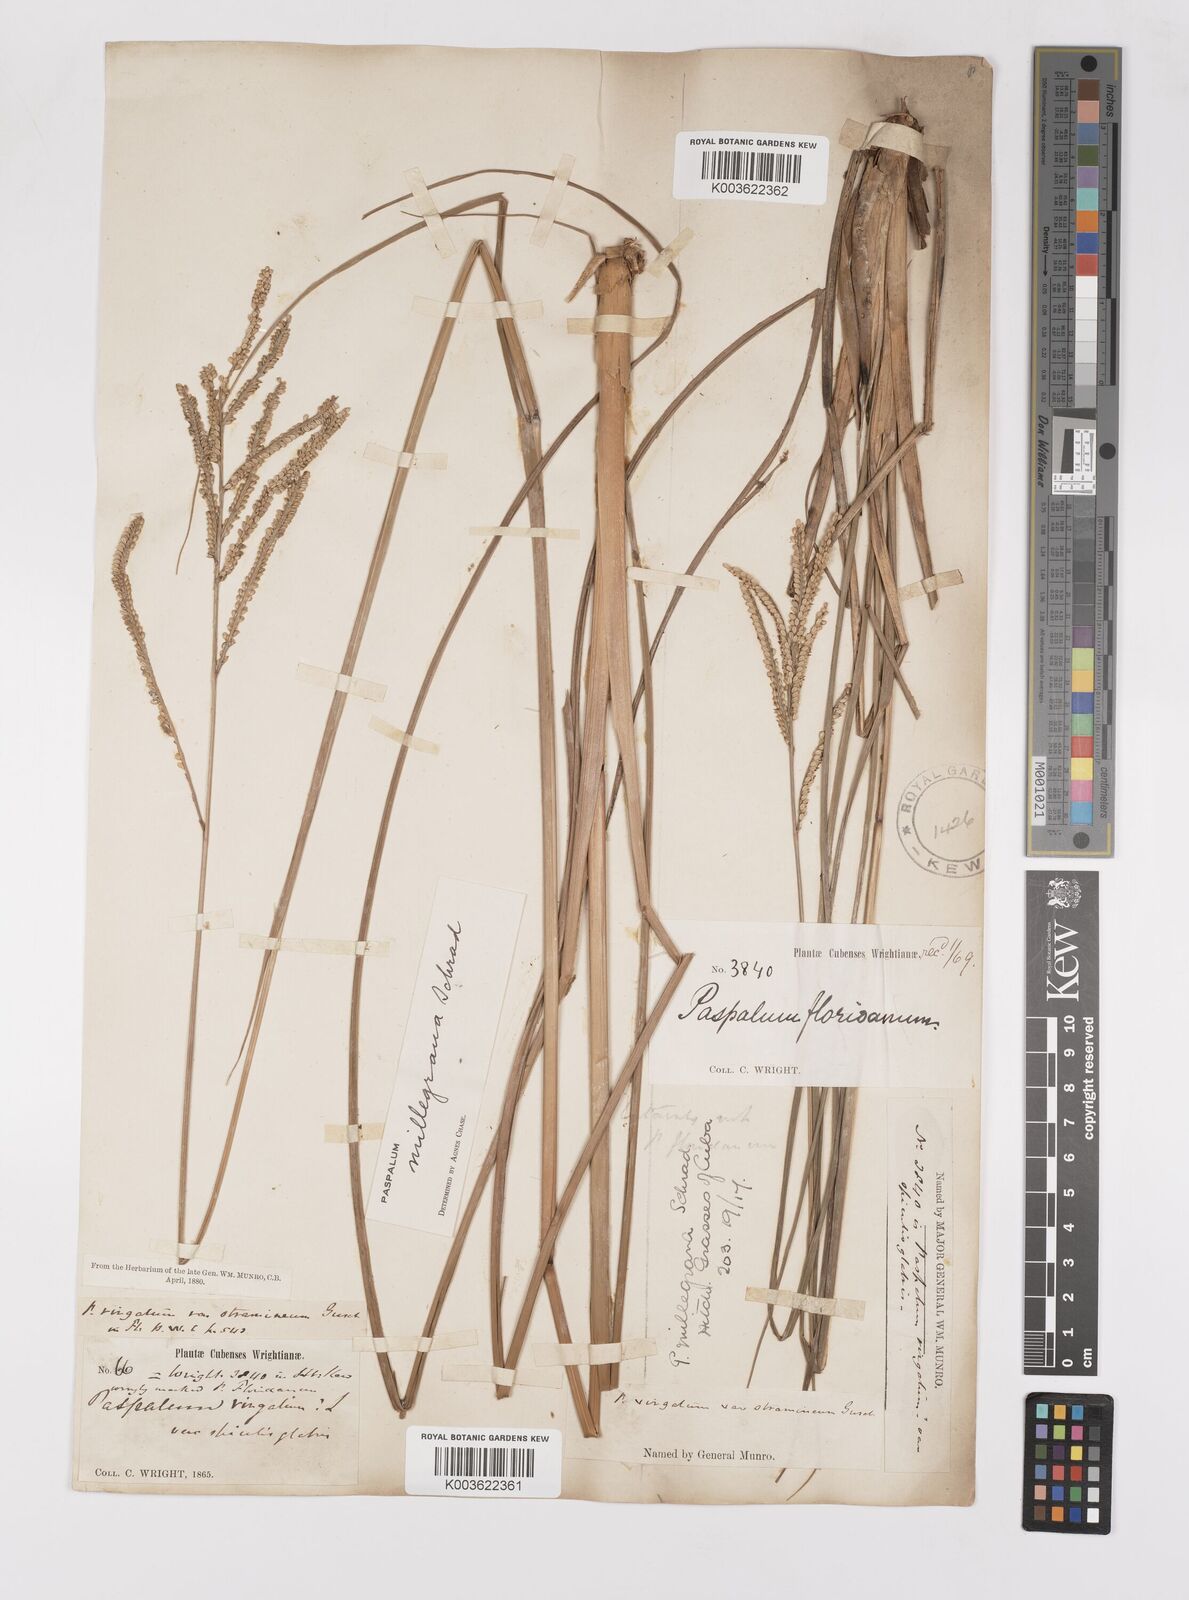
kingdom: Plantae
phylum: Tracheophyta
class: Liliopsida
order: Poales
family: Poaceae
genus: Paspalum
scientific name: Paspalum millegranum
